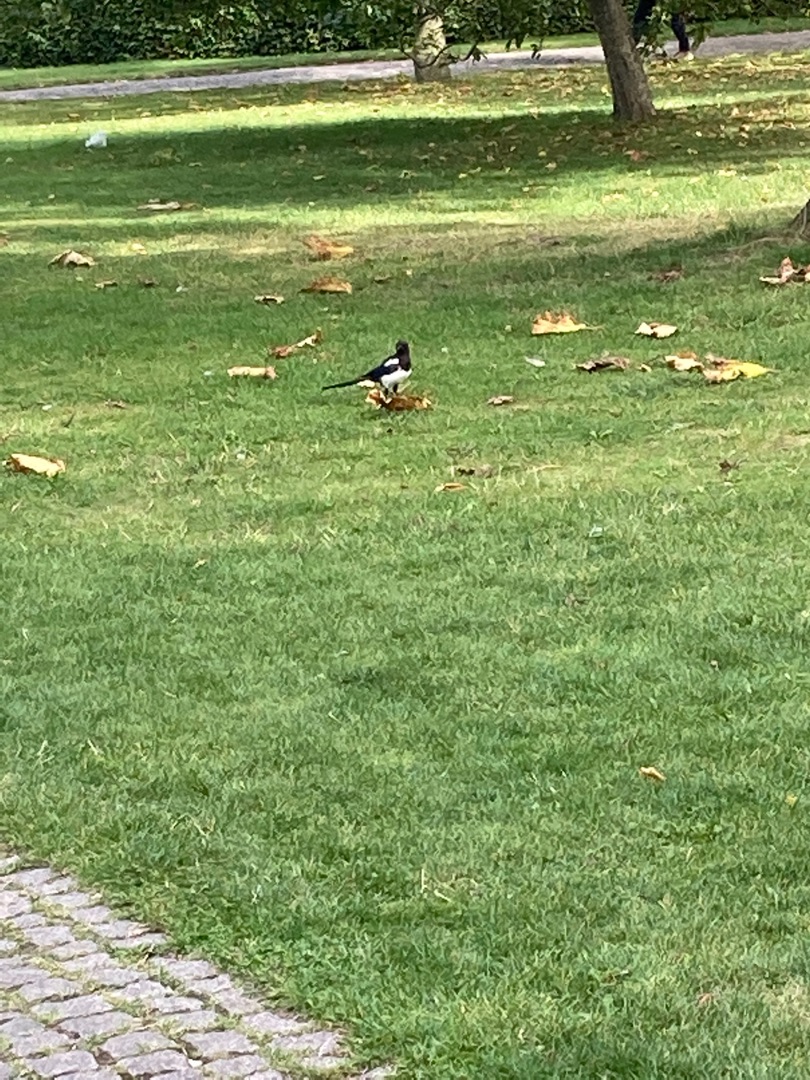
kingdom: Animalia
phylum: Chordata
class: Aves
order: Passeriformes
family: Corvidae
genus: Pica
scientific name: Pica pica
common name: Husskade
